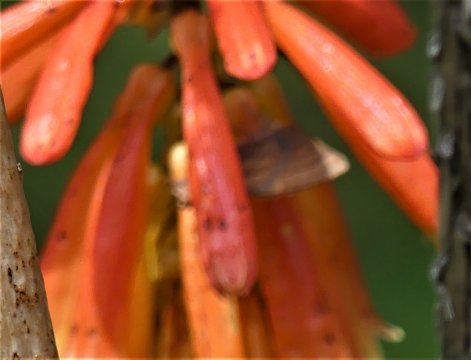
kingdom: Animalia
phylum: Arthropoda
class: Insecta
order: Lepidoptera
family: Lycaenidae
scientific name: Lycaenidae
